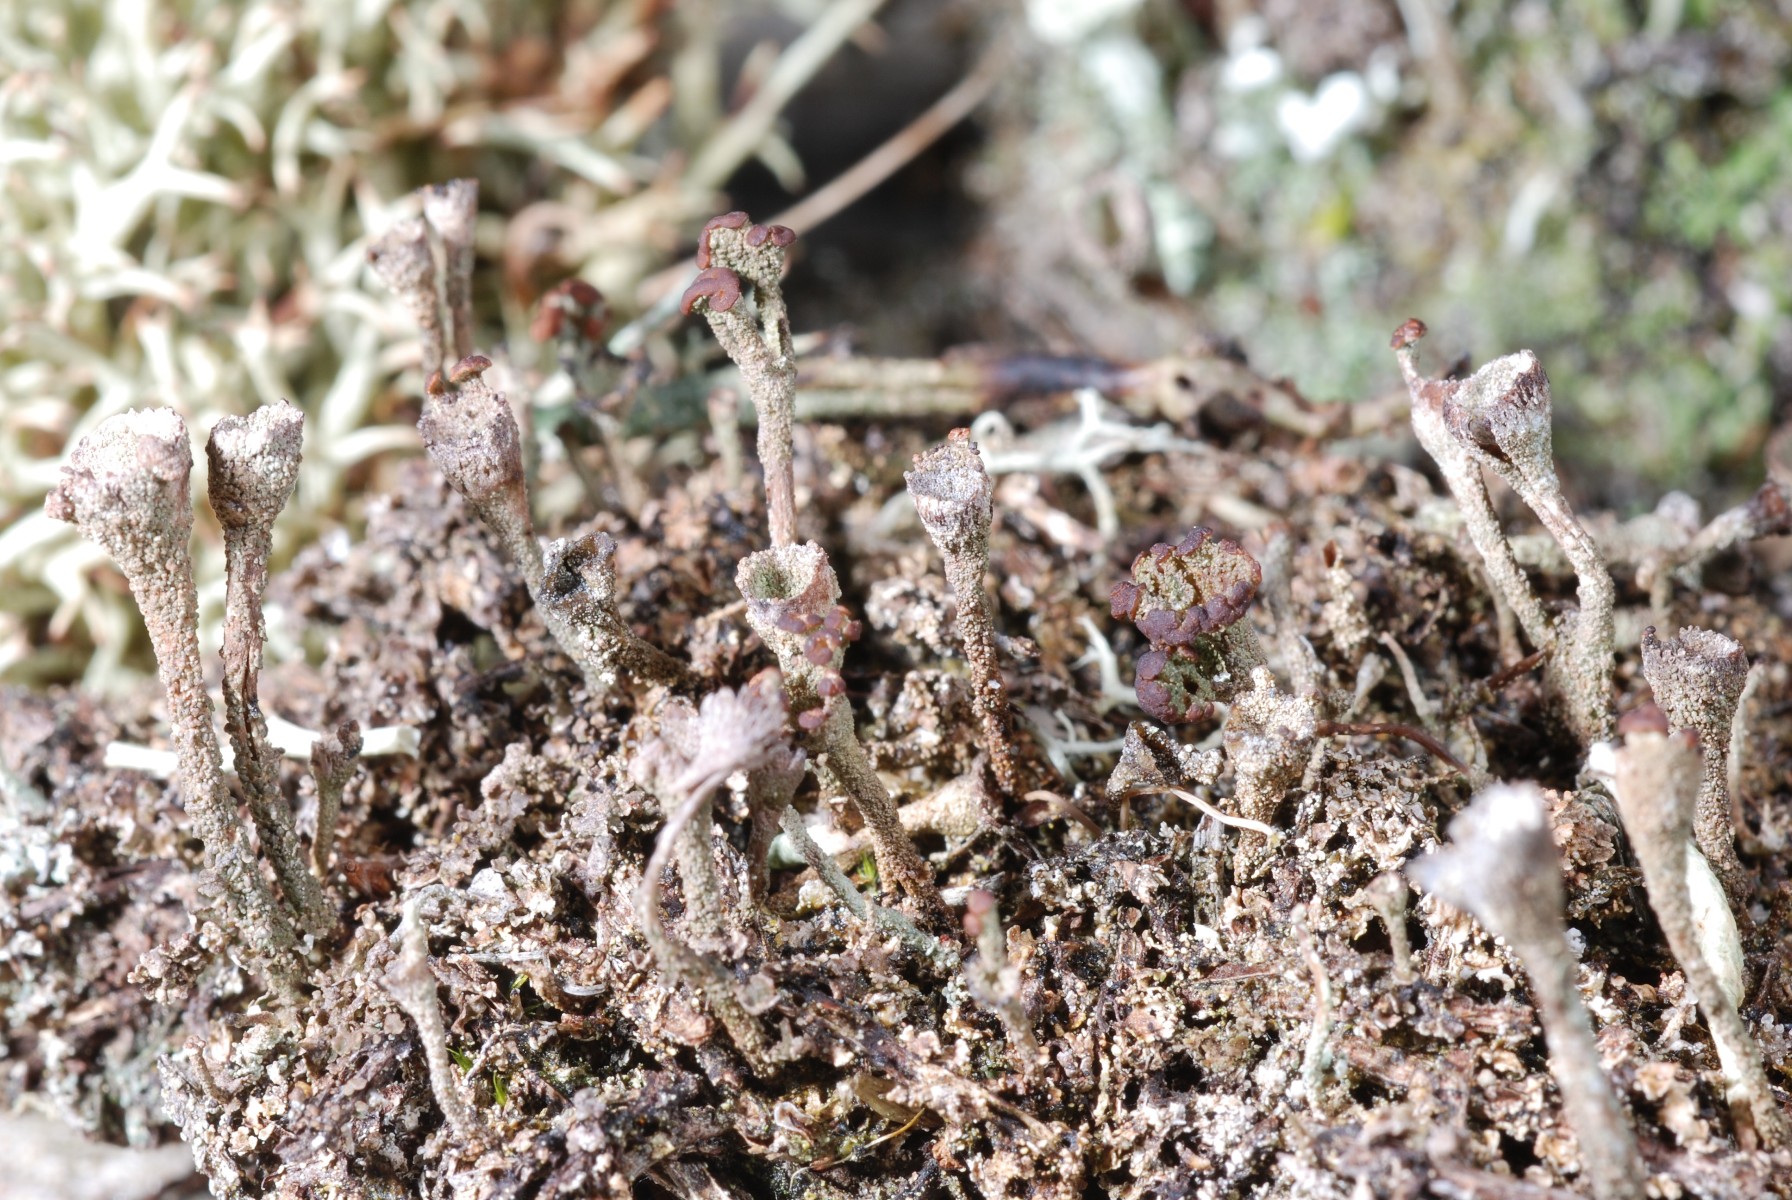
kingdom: Fungi
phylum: Ascomycota
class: Lecanoromycetes
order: Lecanorales
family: Cladoniaceae
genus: Cladonia
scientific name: Cladonia merochlorophaea
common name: mørk bægerlav
